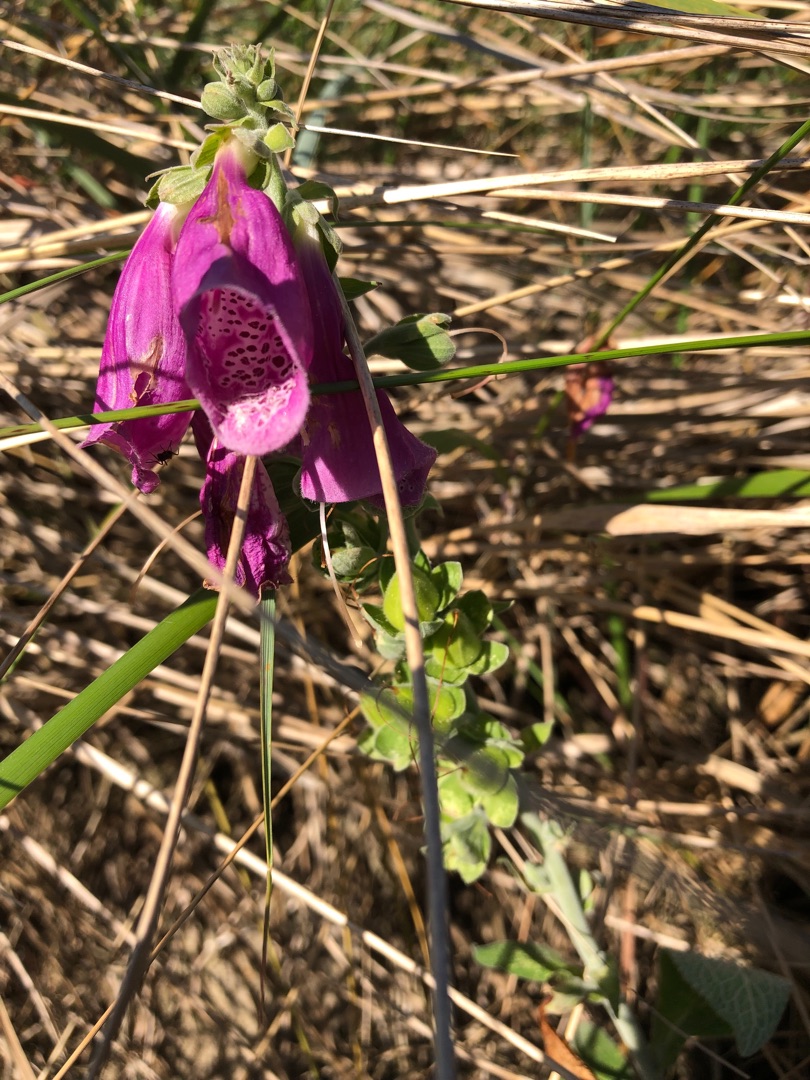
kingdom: Plantae
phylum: Tracheophyta
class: Magnoliopsida
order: Lamiales
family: Plantaginaceae
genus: Digitalis
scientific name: Digitalis purpurea
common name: Almindelig fingerbøl
